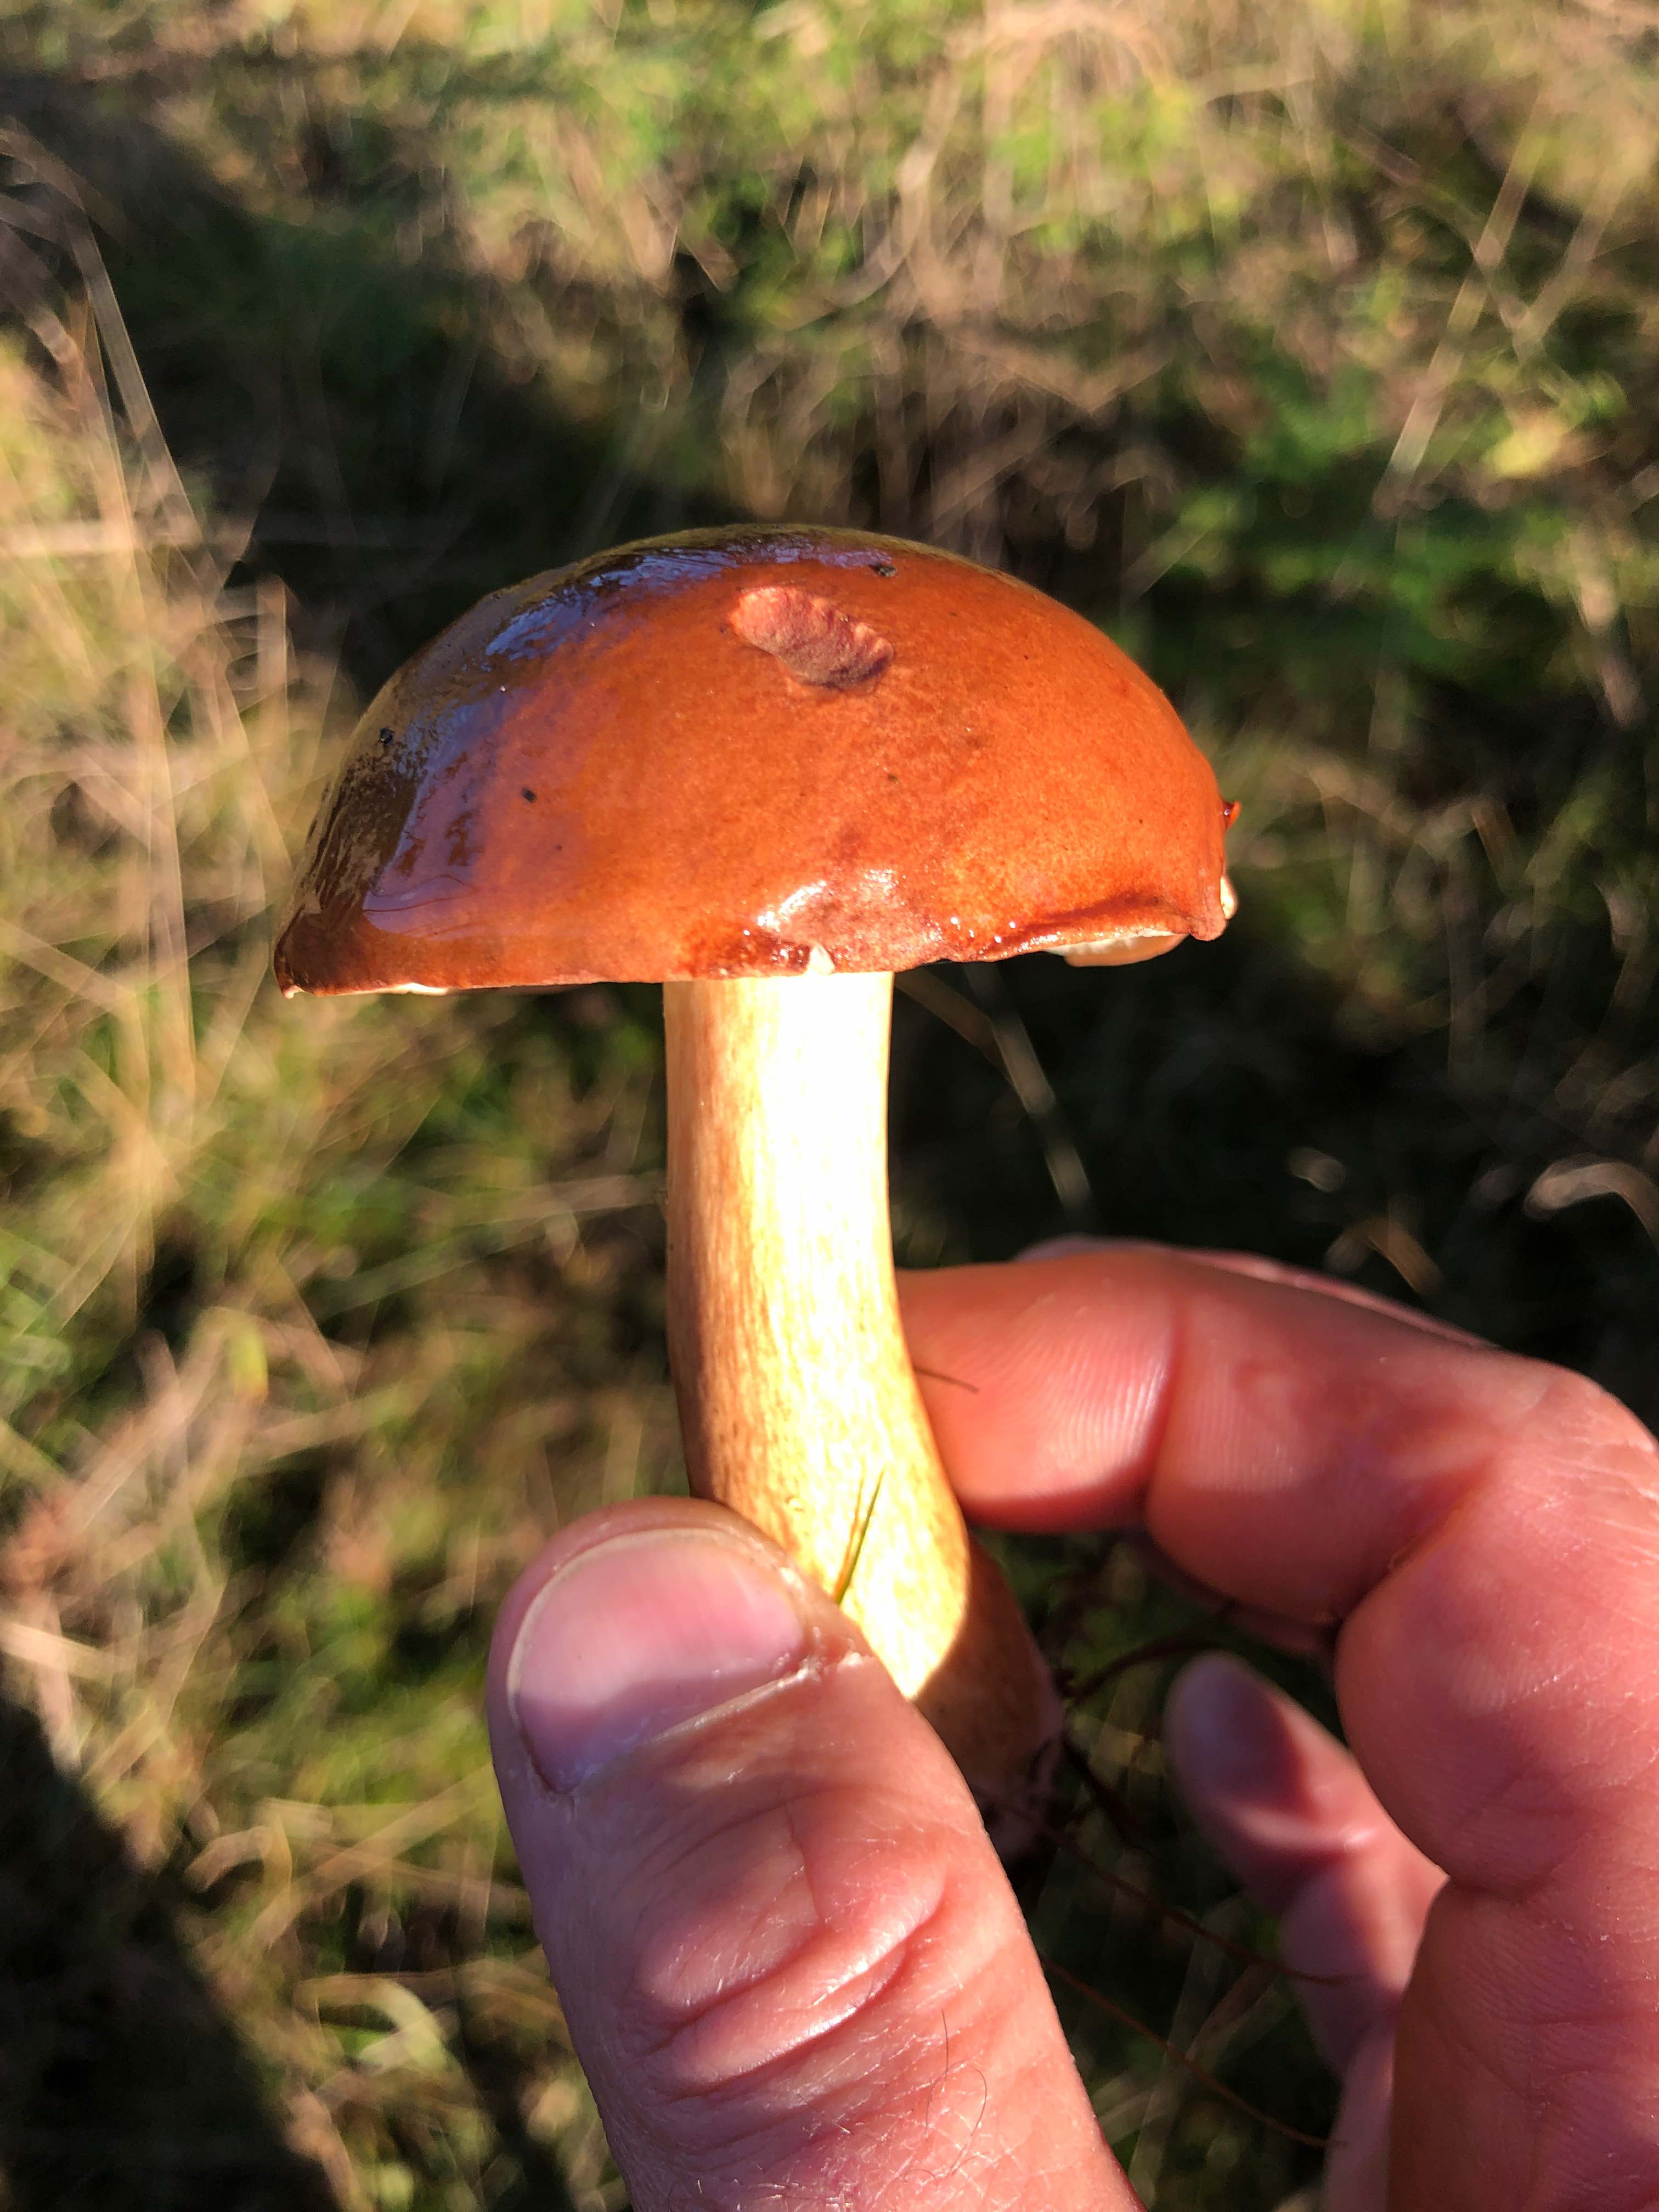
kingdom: Fungi
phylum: Basidiomycota
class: Agaricomycetes
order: Boletales
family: Boletaceae
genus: Imleria
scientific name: Imleria badia
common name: brunstokket rørhat
